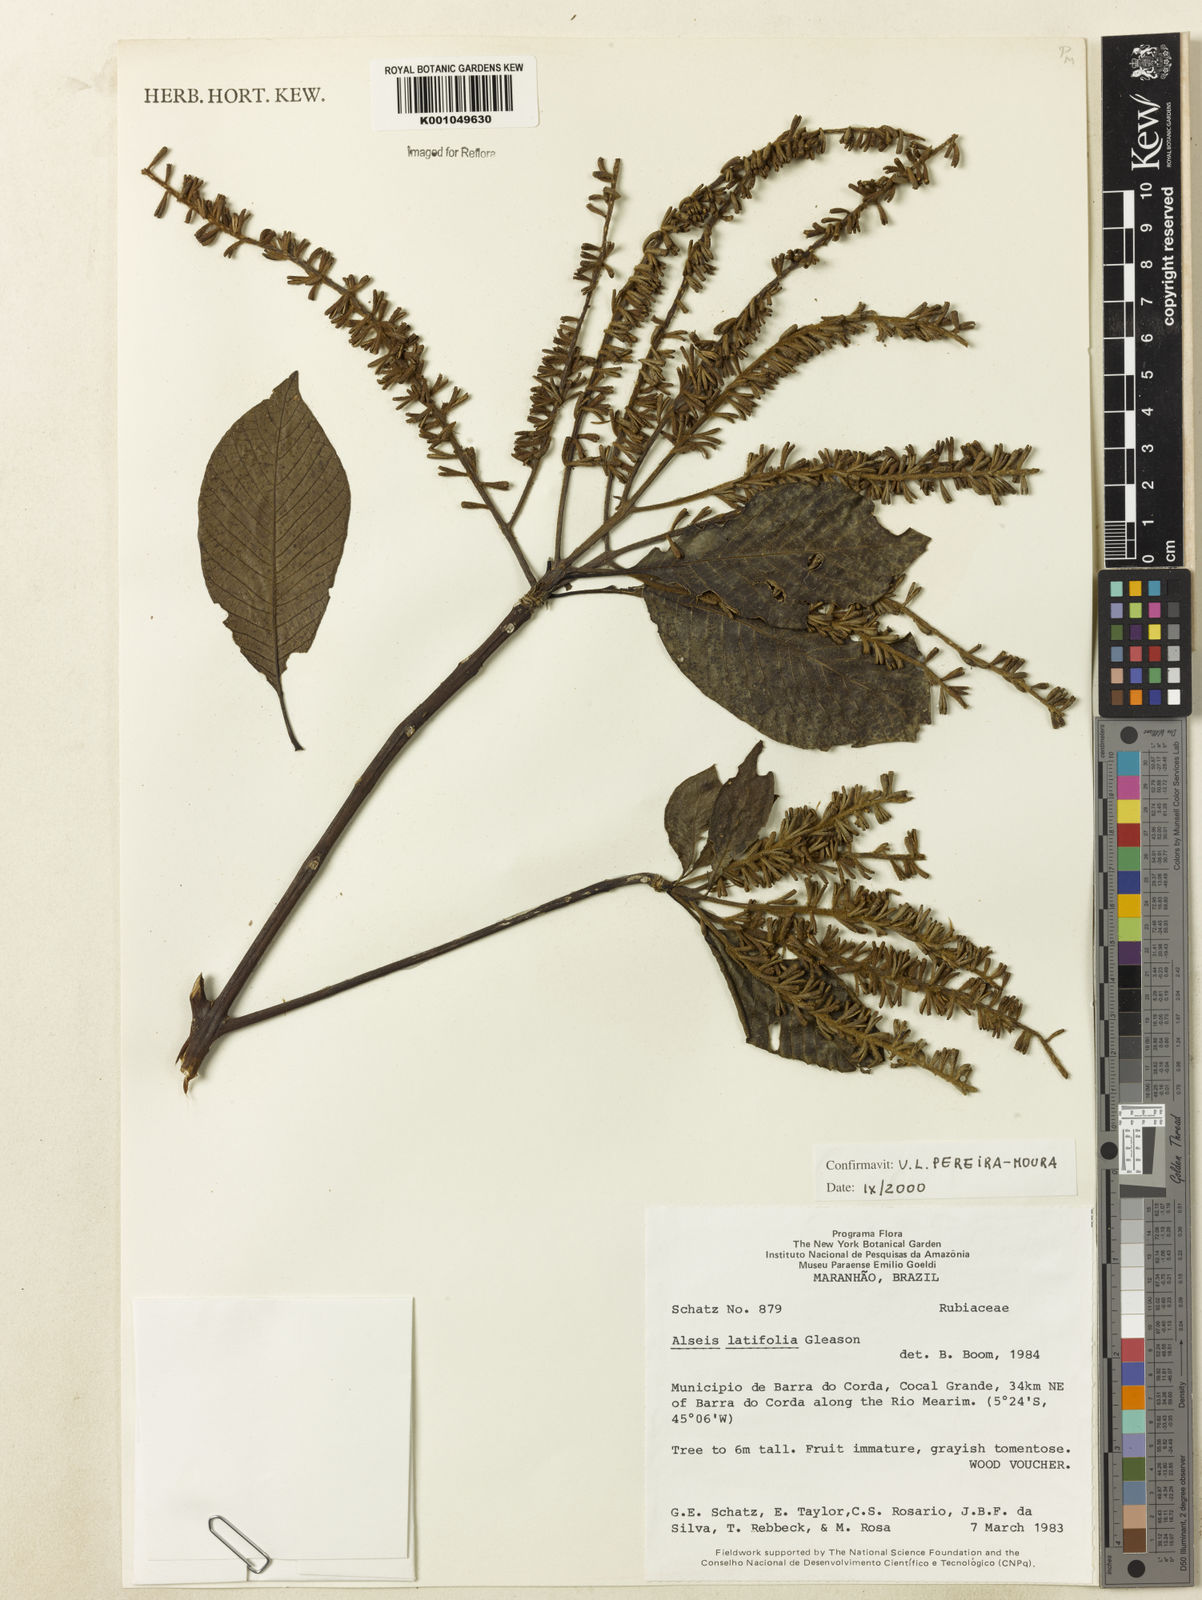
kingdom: Plantae
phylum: Tracheophyta
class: Magnoliopsida
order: Gentianales
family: Rubiaceae
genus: Alseis
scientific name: Alseis latifolia
